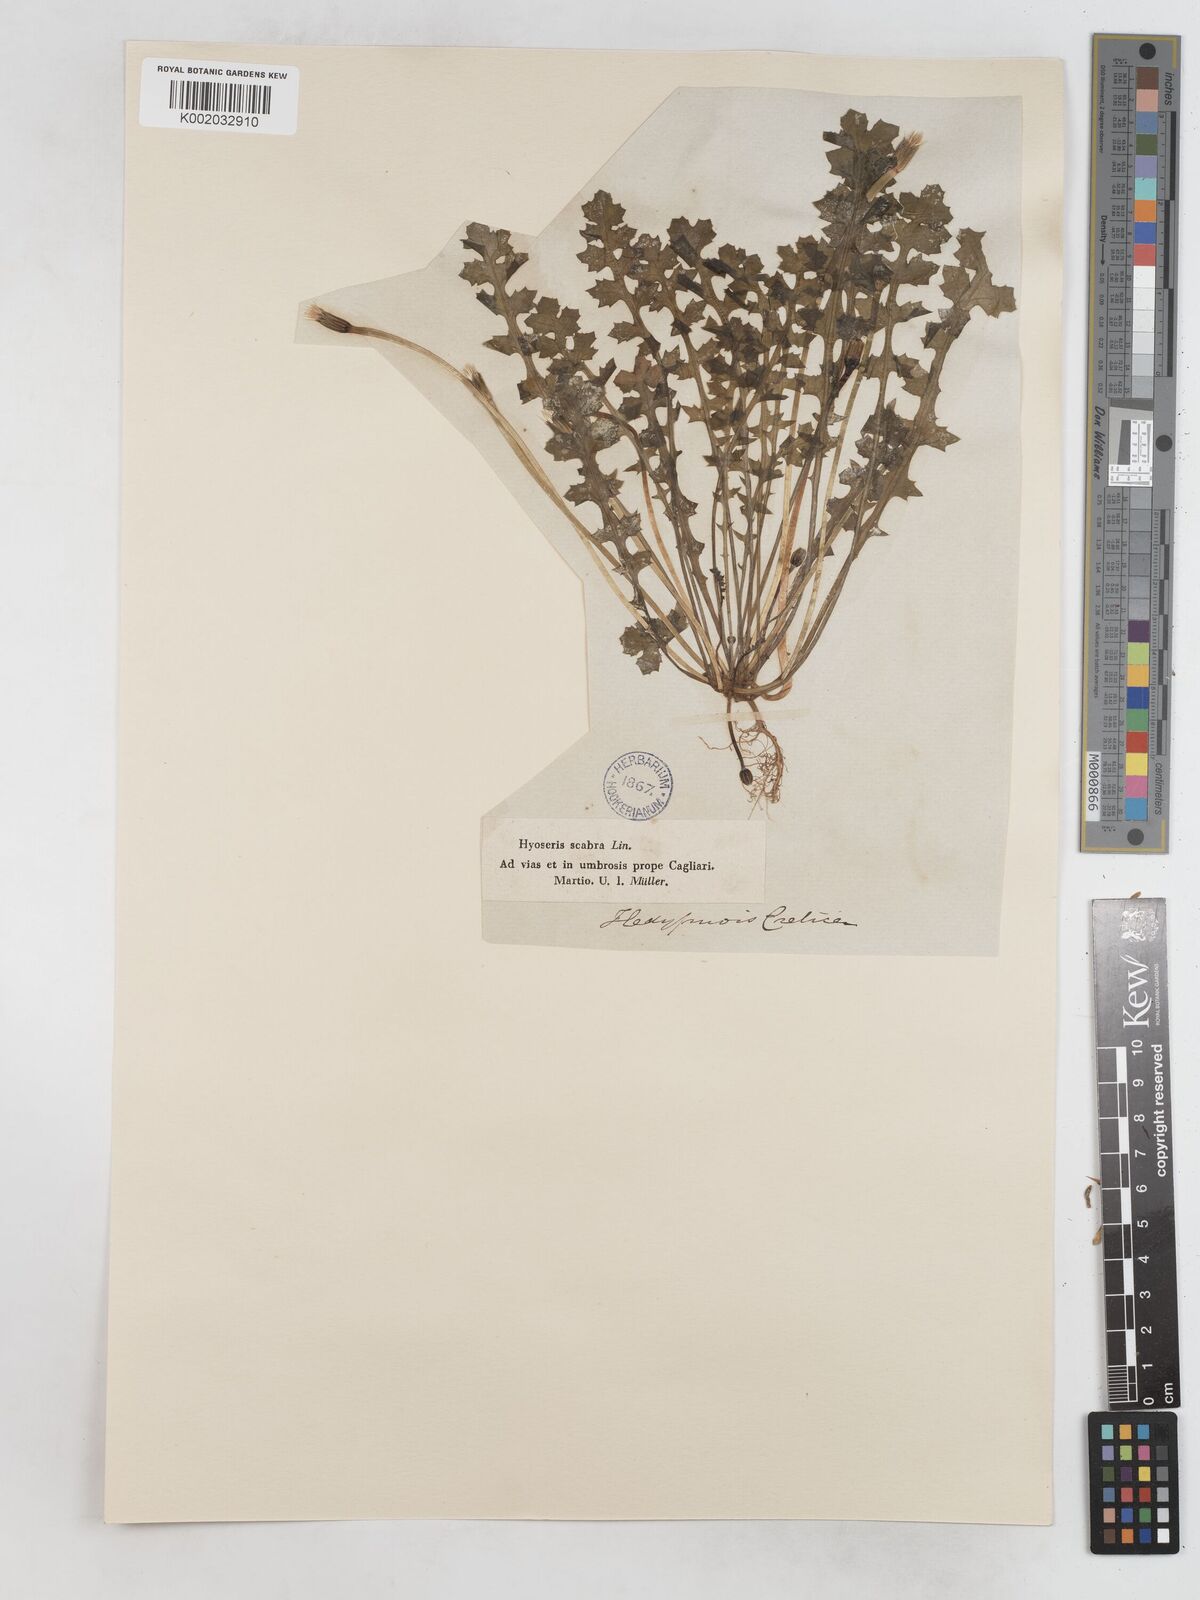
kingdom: Plantae
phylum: Tracheophyta
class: Magnoliopsida
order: Asterales
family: Asteraceae
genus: Hyoseris
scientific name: Hyoseris scabra
